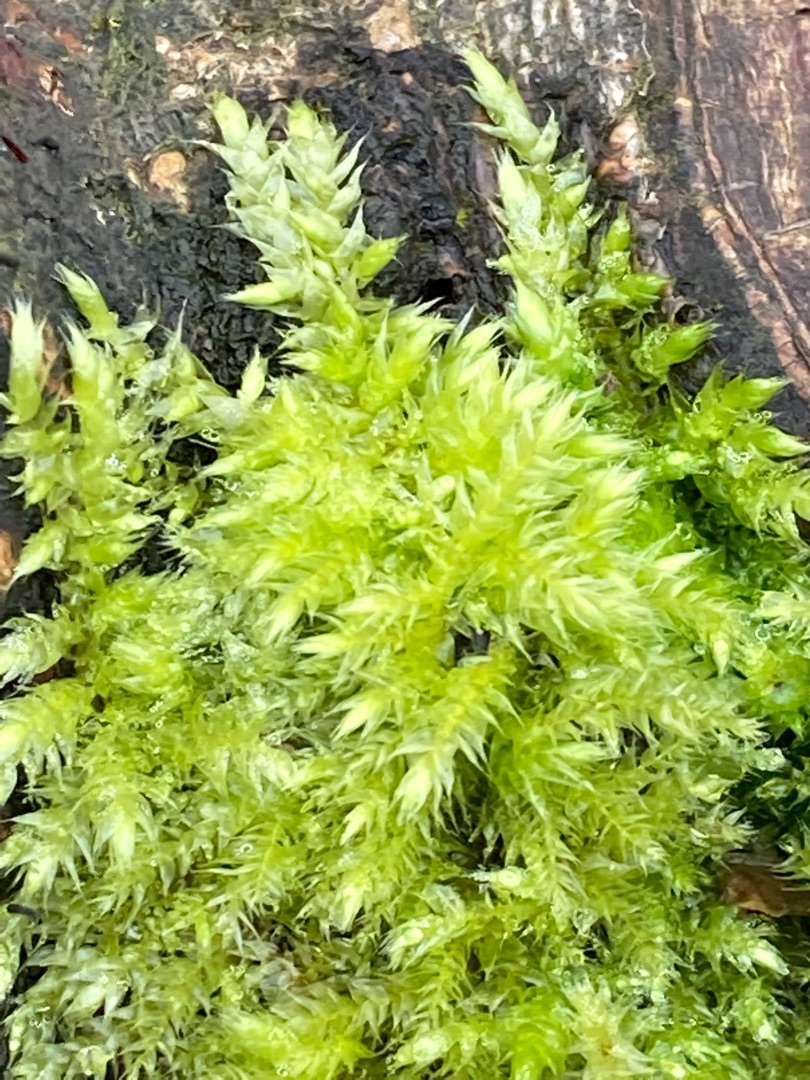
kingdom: Plantae
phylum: Bryophyta
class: Bryopsida
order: Hypnales
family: Brachytheciaceae
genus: Brachythecium
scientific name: Brachythecium rutabulum
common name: Almindelig kortkapsel
